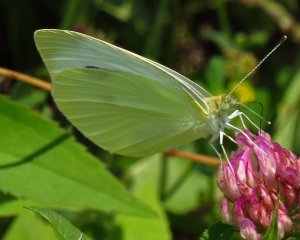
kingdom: Animalia
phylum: Arthropoda
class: Insecta
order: Lepidoptera
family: Pieridae
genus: Pieris
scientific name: Pieris rapae
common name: Cabbage White
